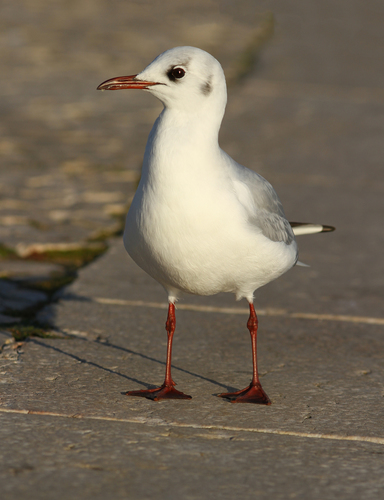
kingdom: Animalia
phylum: Chordata
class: Aves
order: Charadriiformes
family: Laridae
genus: Chroicocephalus
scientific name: Chroicocephalus ridibundus
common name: Black-headed gull
